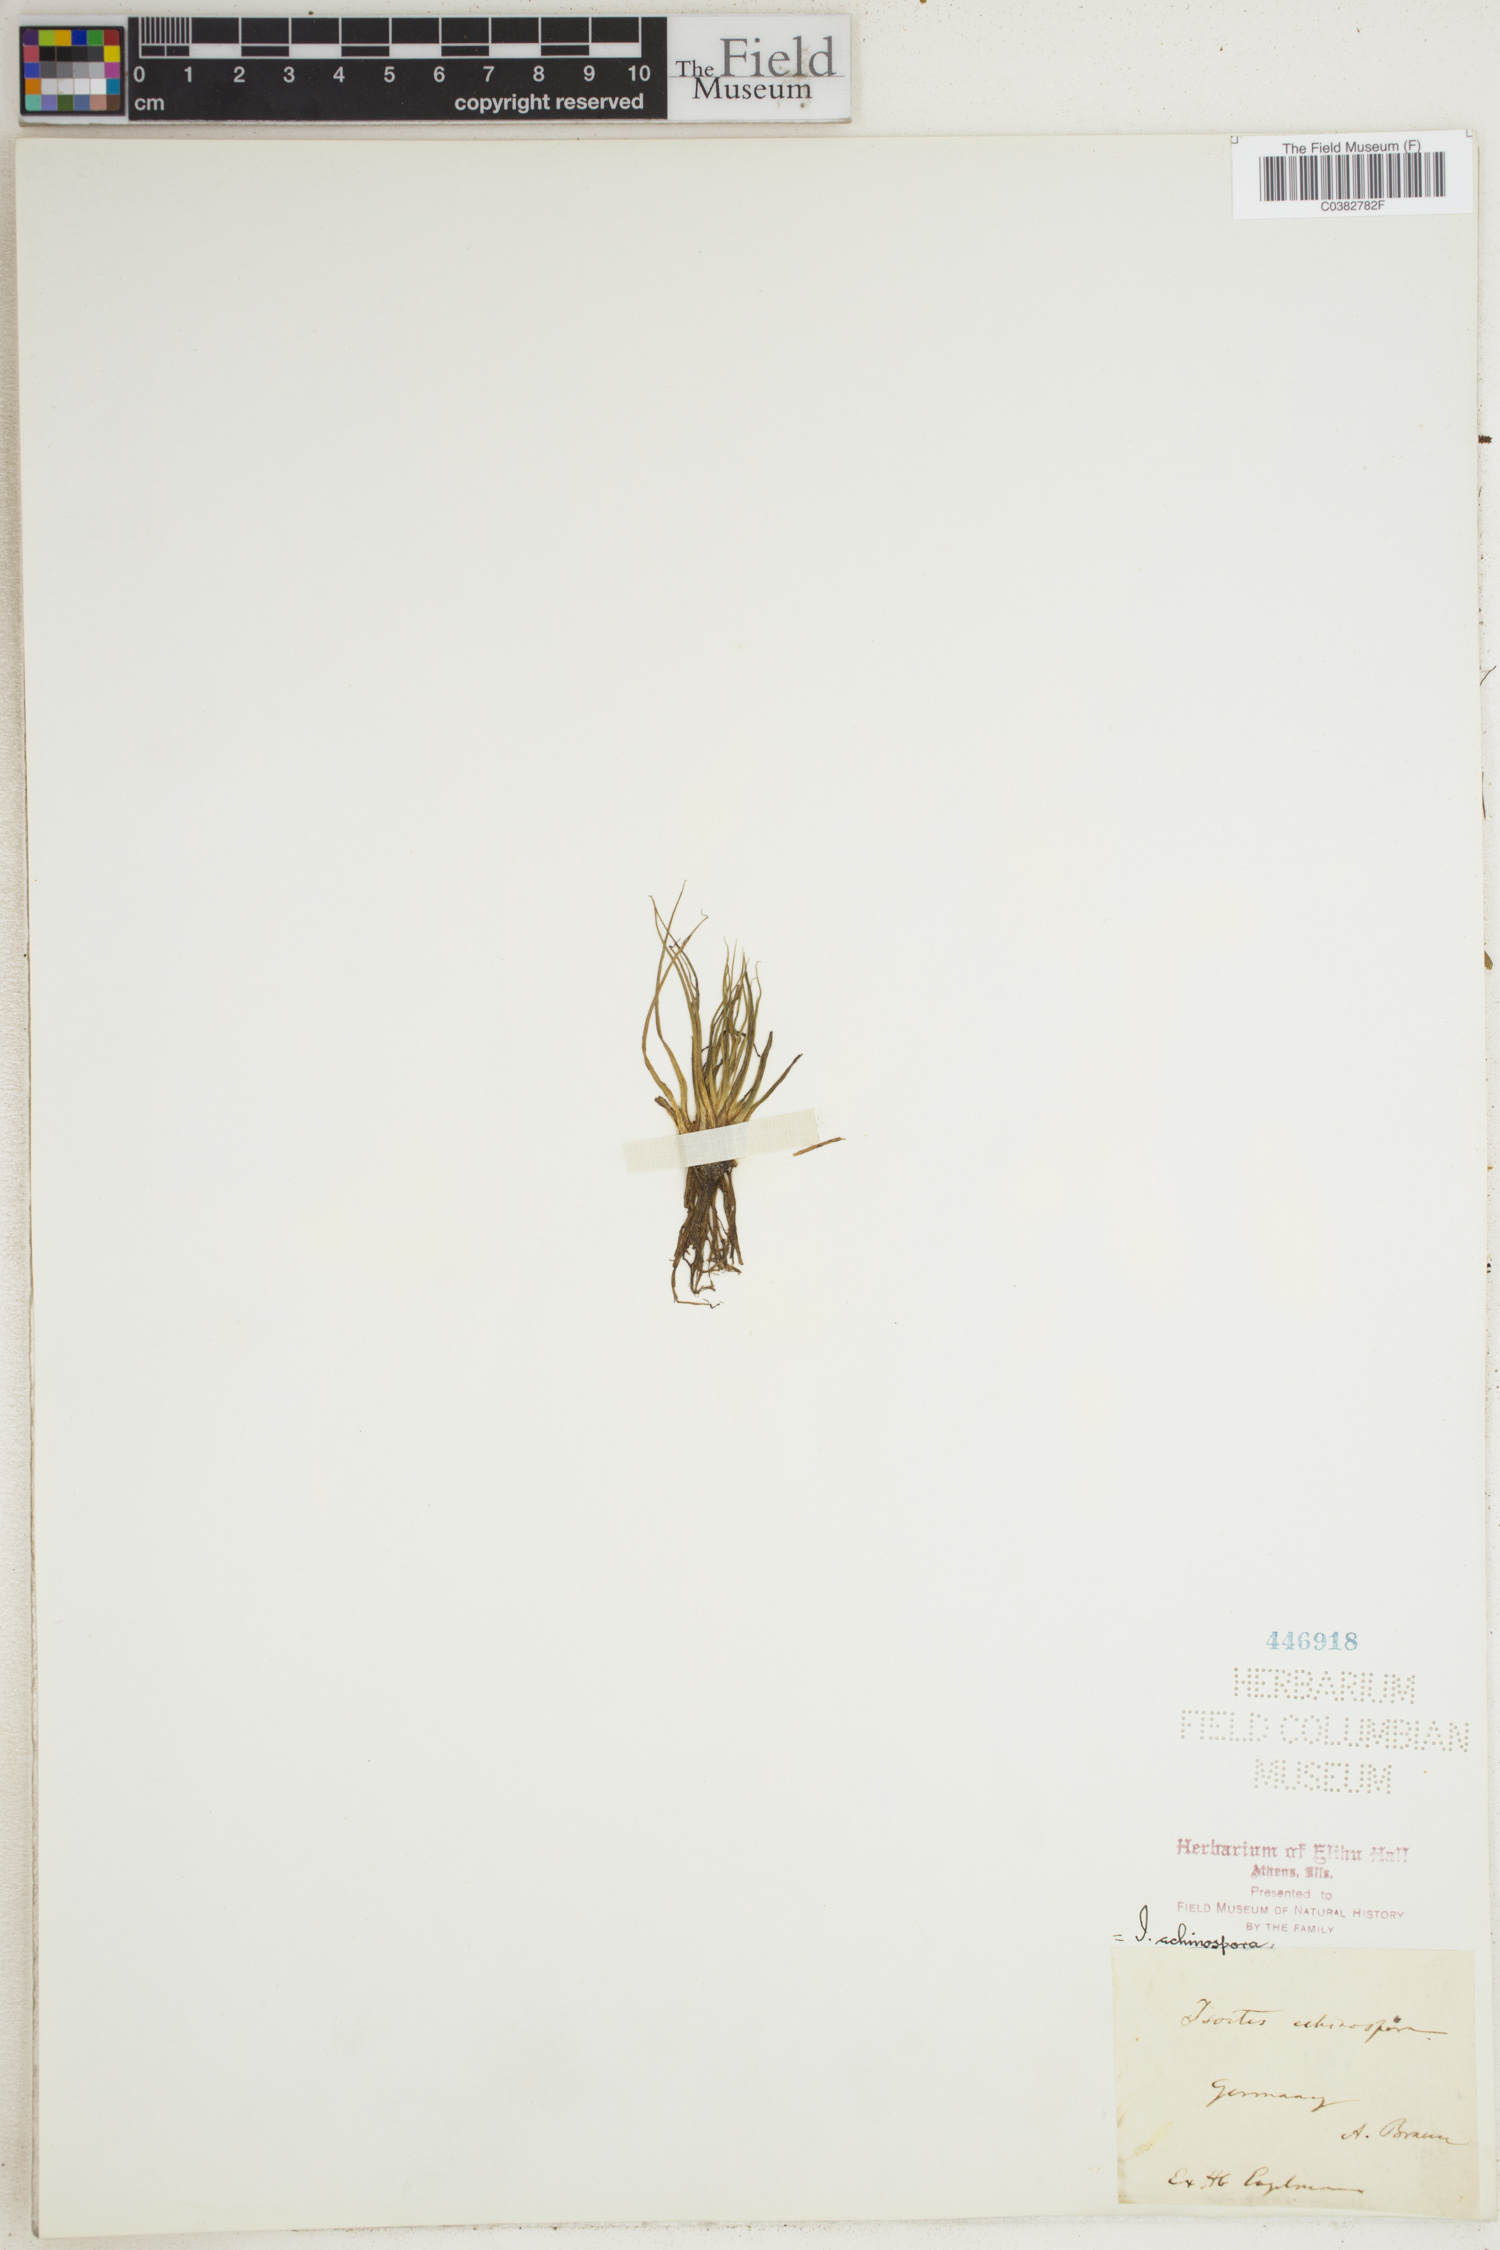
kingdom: Plantae
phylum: Tracheophyta
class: Lycopodiopsida
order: Isoetales
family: Isoetaceae
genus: Isoetes
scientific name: Isoetes echinospora
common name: Spring quillwort
